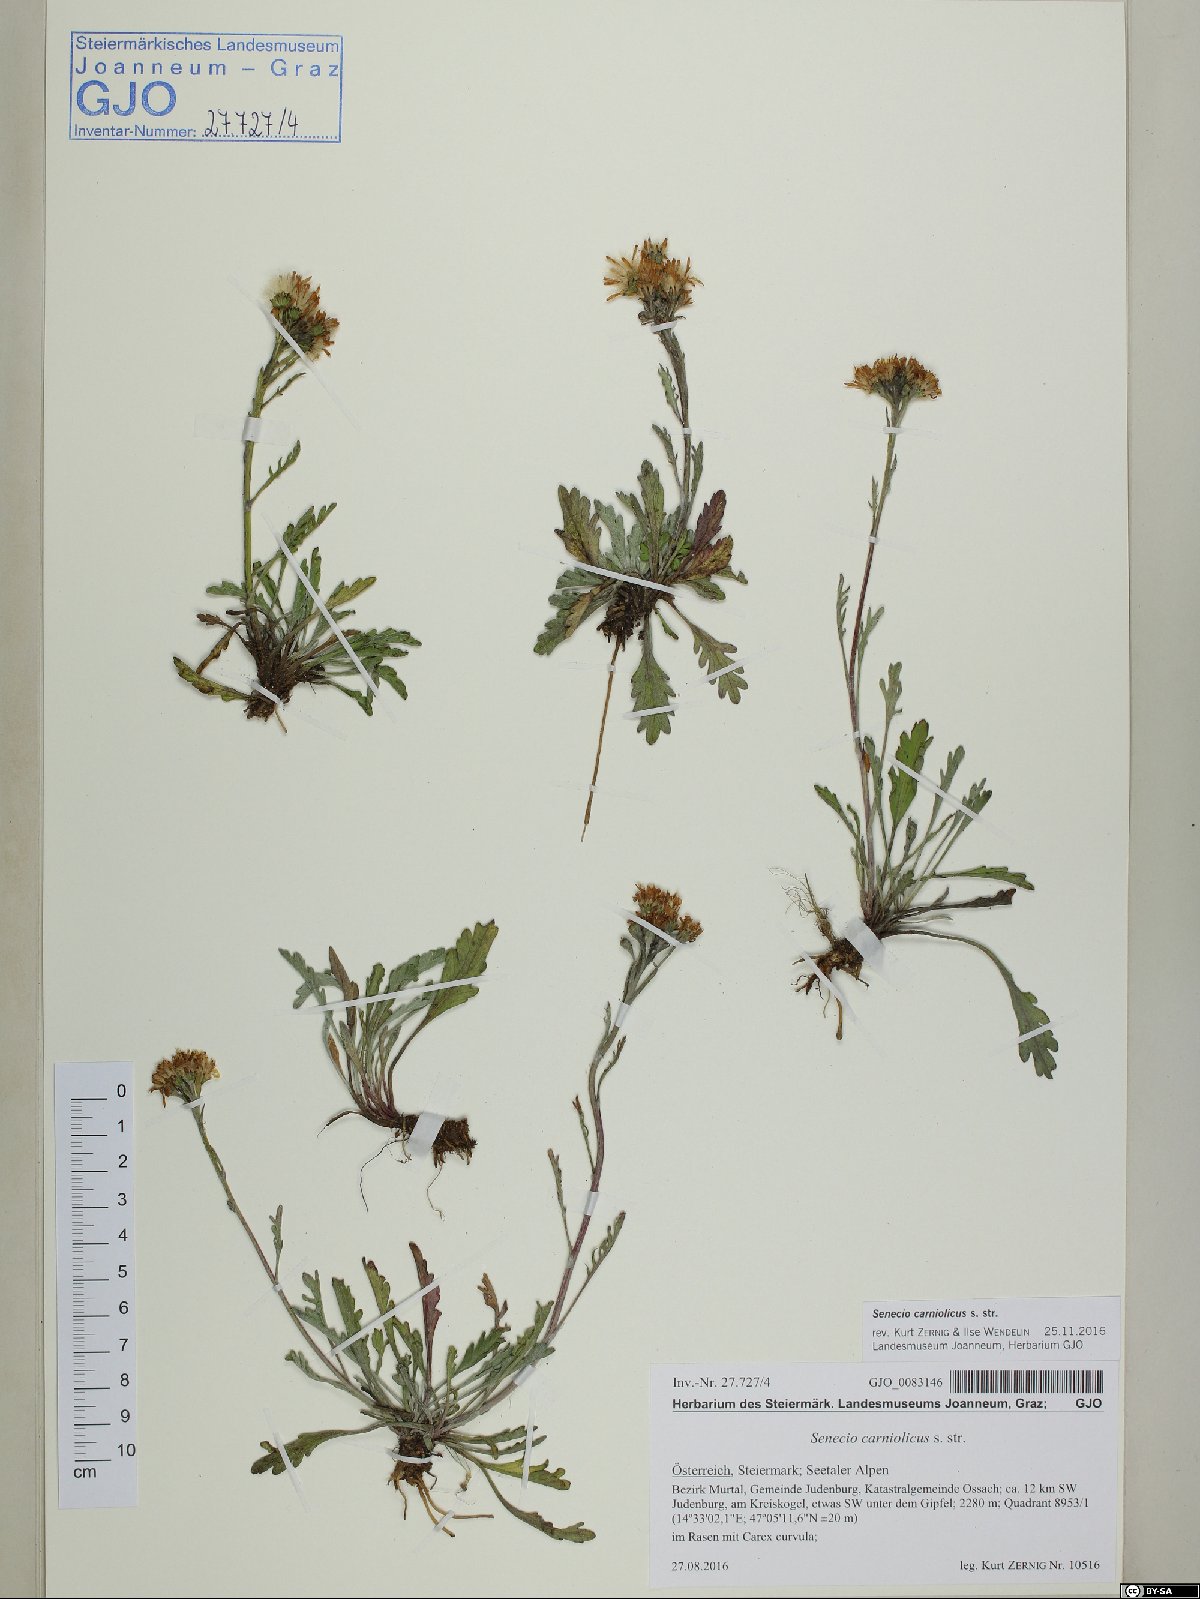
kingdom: Plantae
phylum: Tracheophyta
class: Magnoliopsida
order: Asterales
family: Asteraceae
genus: Jacobaea
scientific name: Jacobaea carniolica
